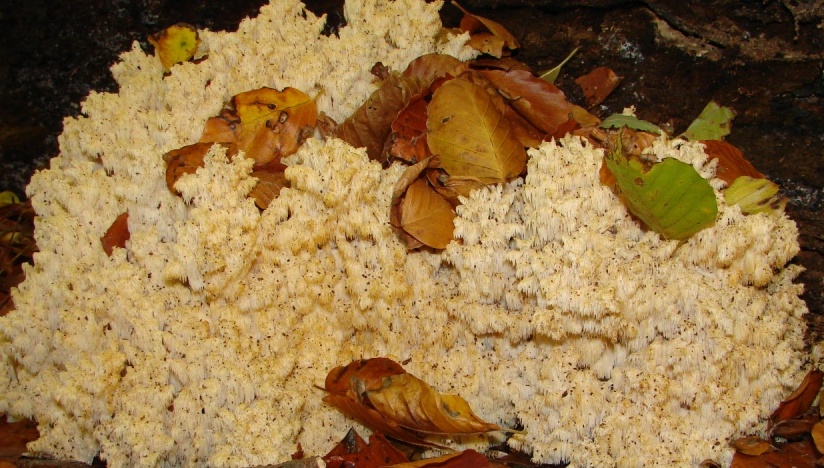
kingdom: Fungi
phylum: Basidiomycota
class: Agaricomycetes
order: Russulales
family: Hericiaceae
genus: Hericium
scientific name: Hericium coralloides
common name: koralpigsvamp
